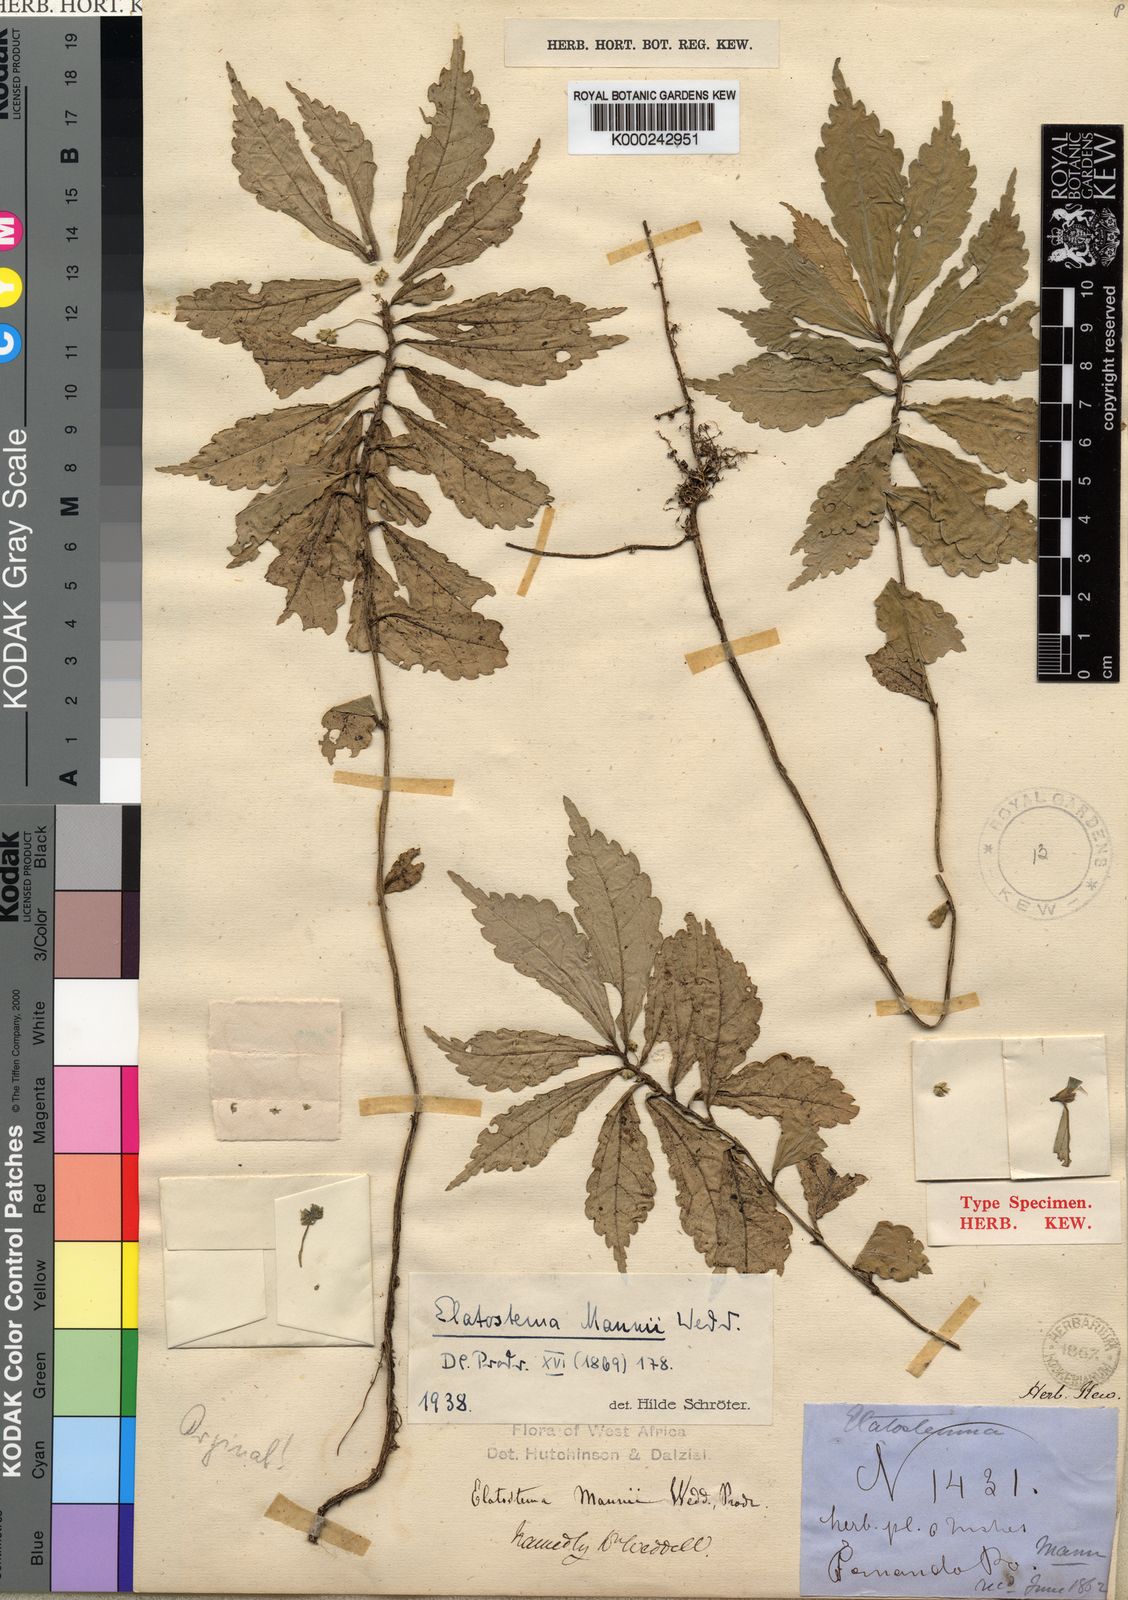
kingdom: Plantae
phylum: Tracheophyta
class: Magnoliopsida
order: Rosales
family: Urticaceae
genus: Elatostema
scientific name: Elatostema mannii
